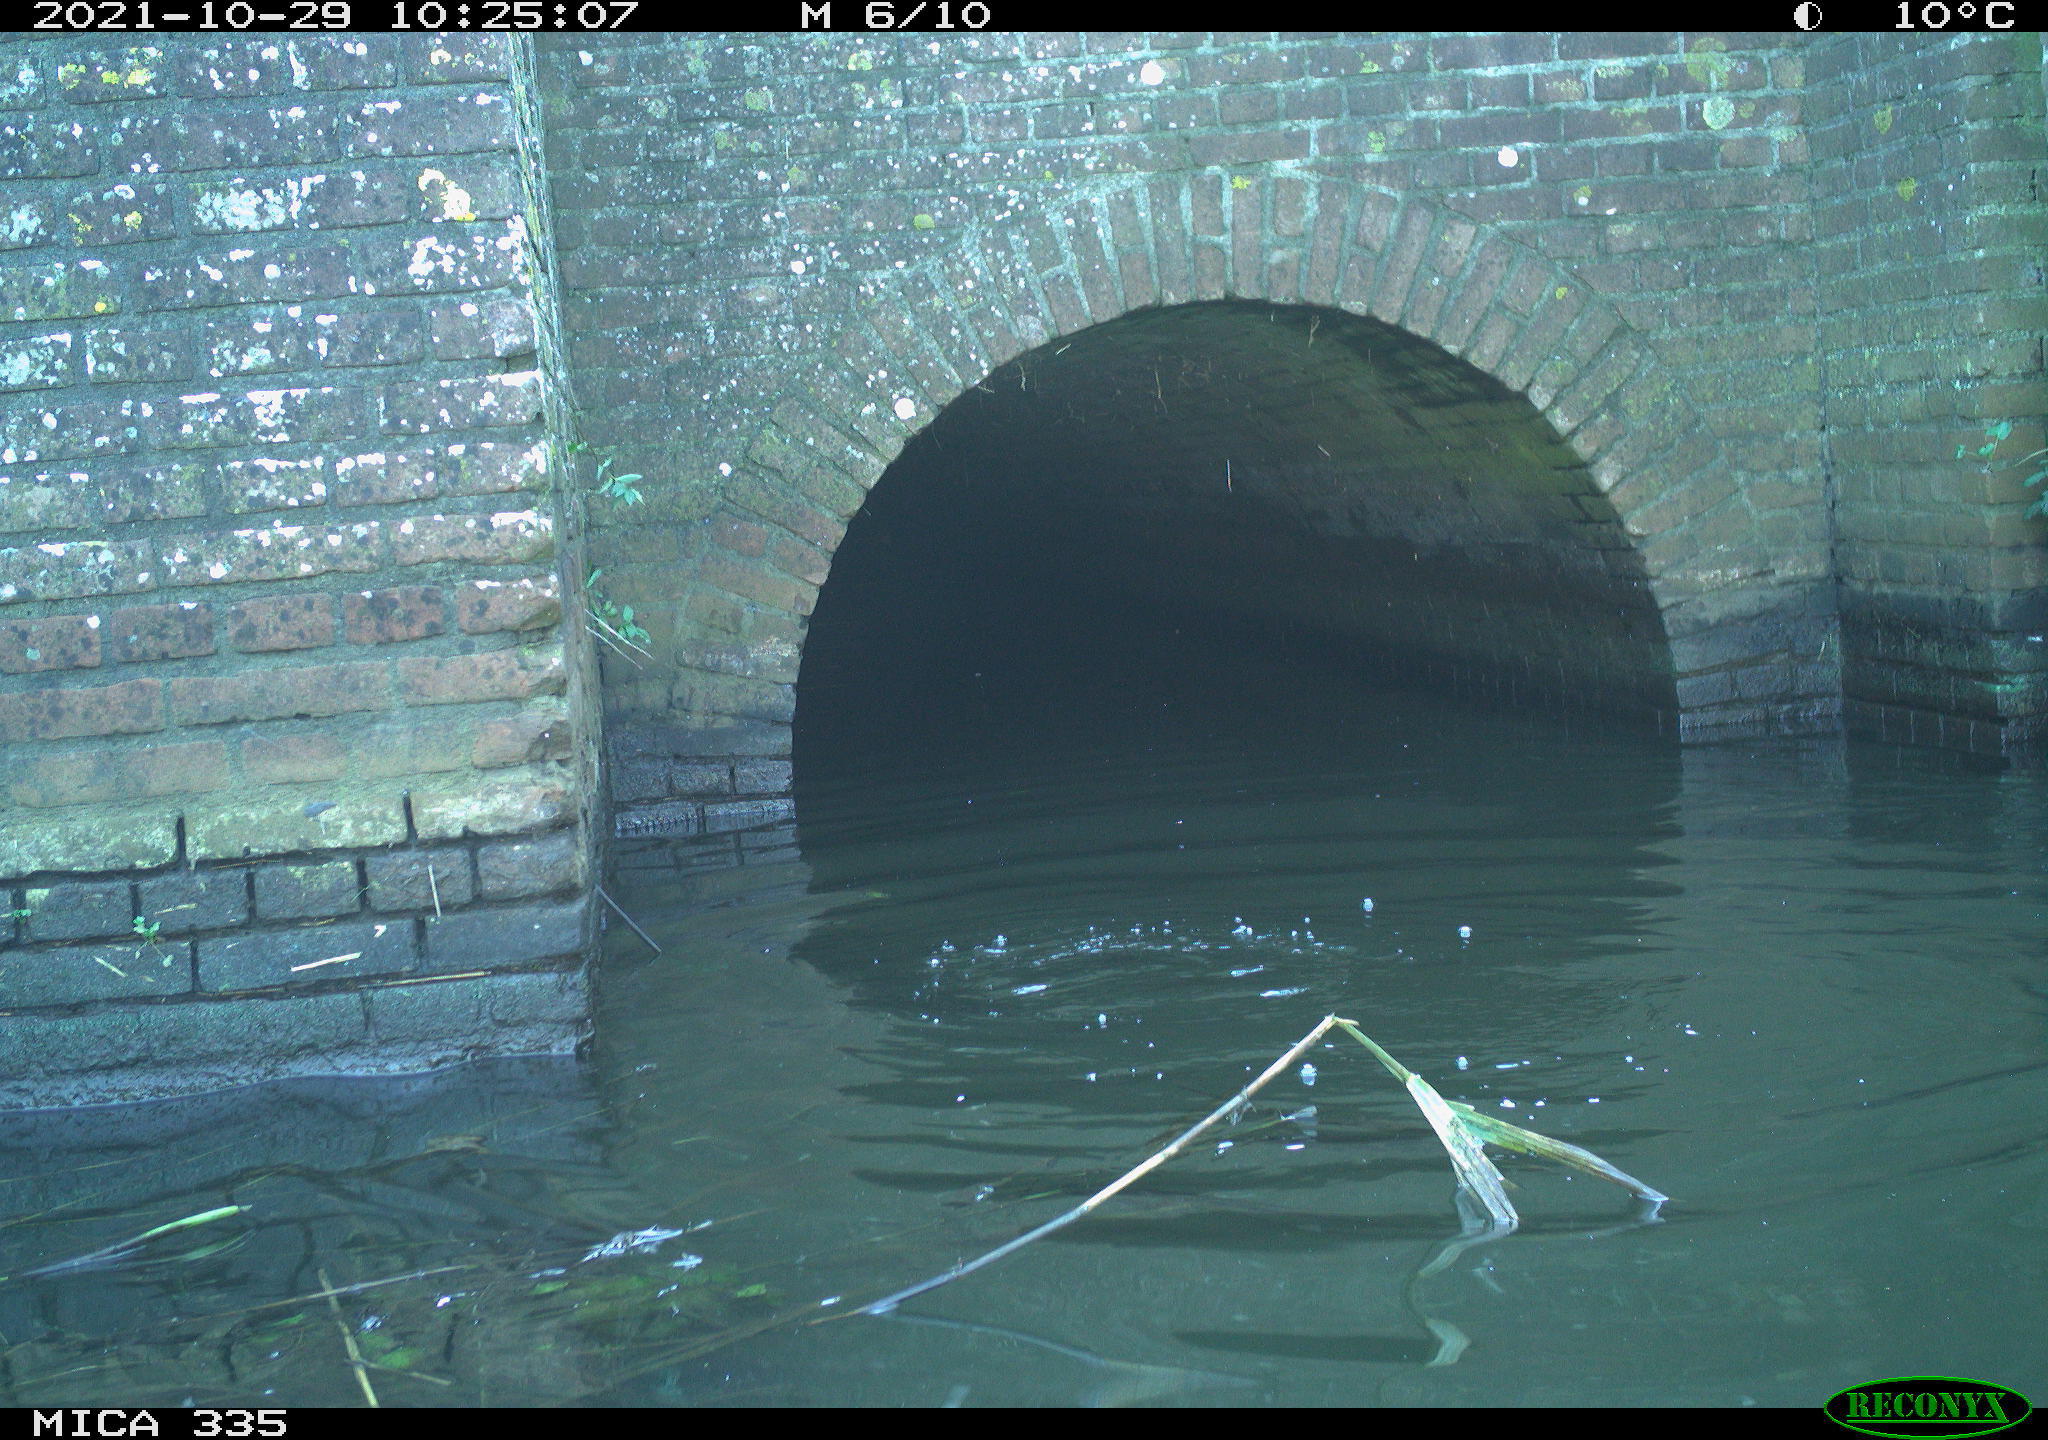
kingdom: Animalia
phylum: Chordata
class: Aves
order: Anseriformes
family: Anatidae
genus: Anas
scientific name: Anas platyrhynchos
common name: Mallard
